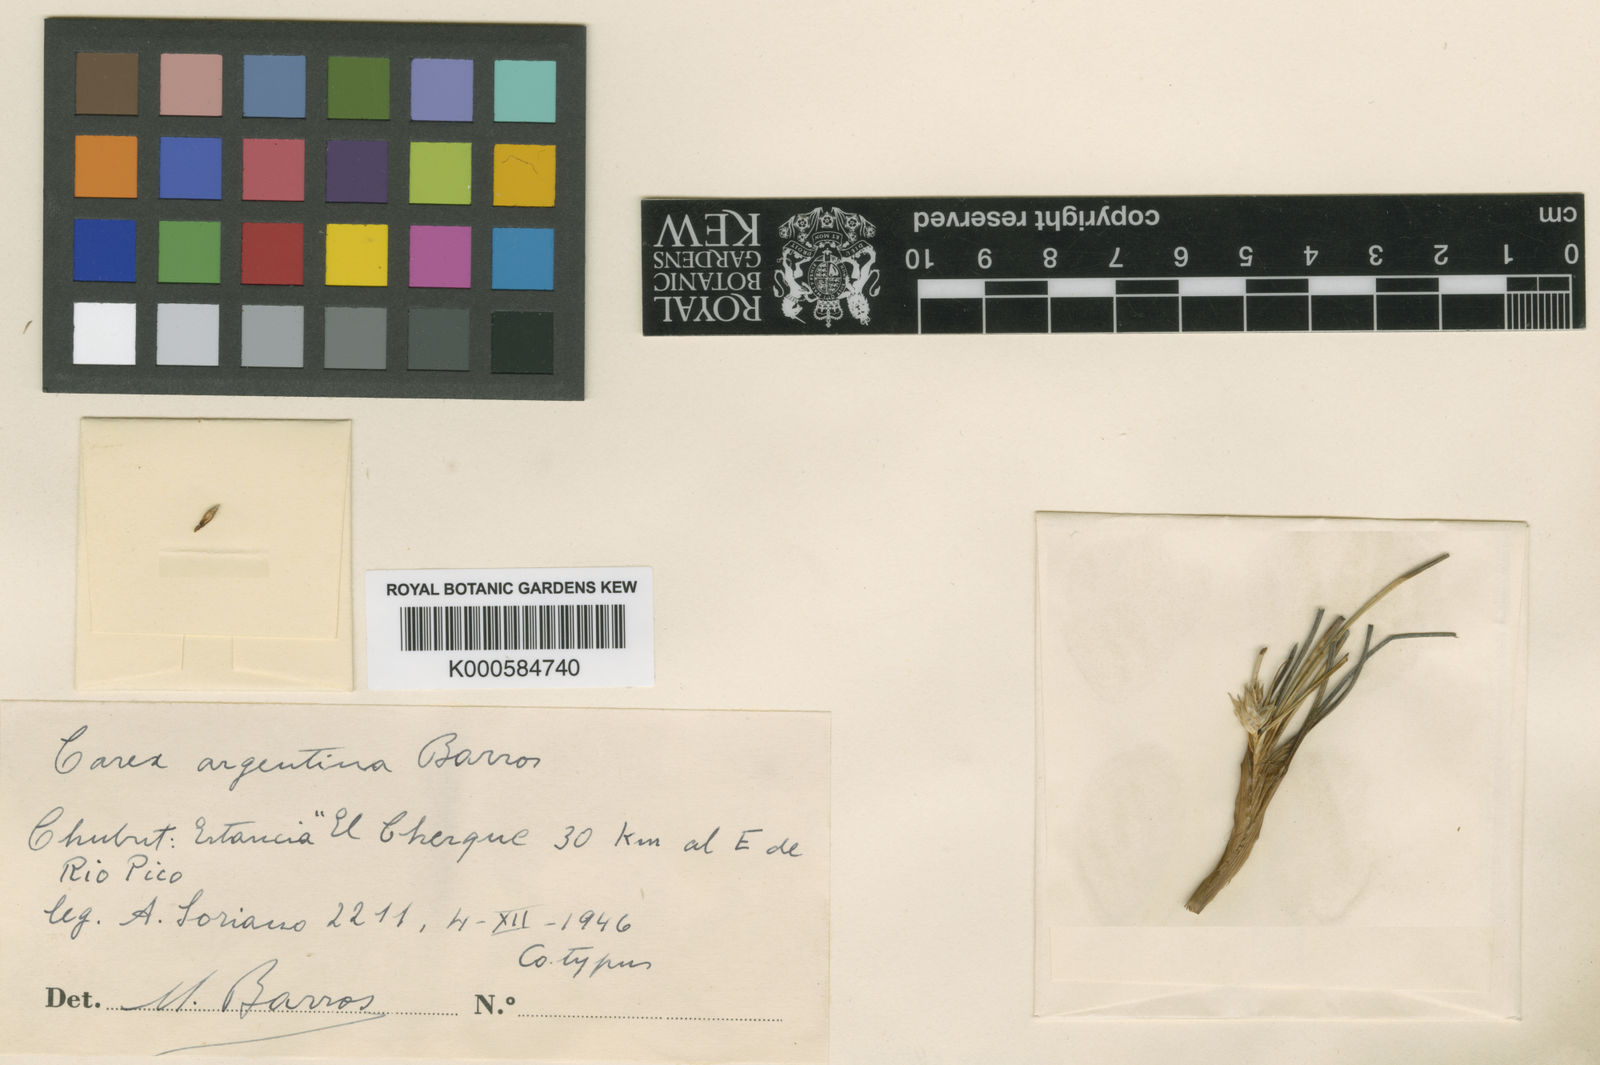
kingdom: Plantae
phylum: Tracheophyta
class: Liliopsida
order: Poales
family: Cyperaceae
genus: Carex
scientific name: Carex argentina
